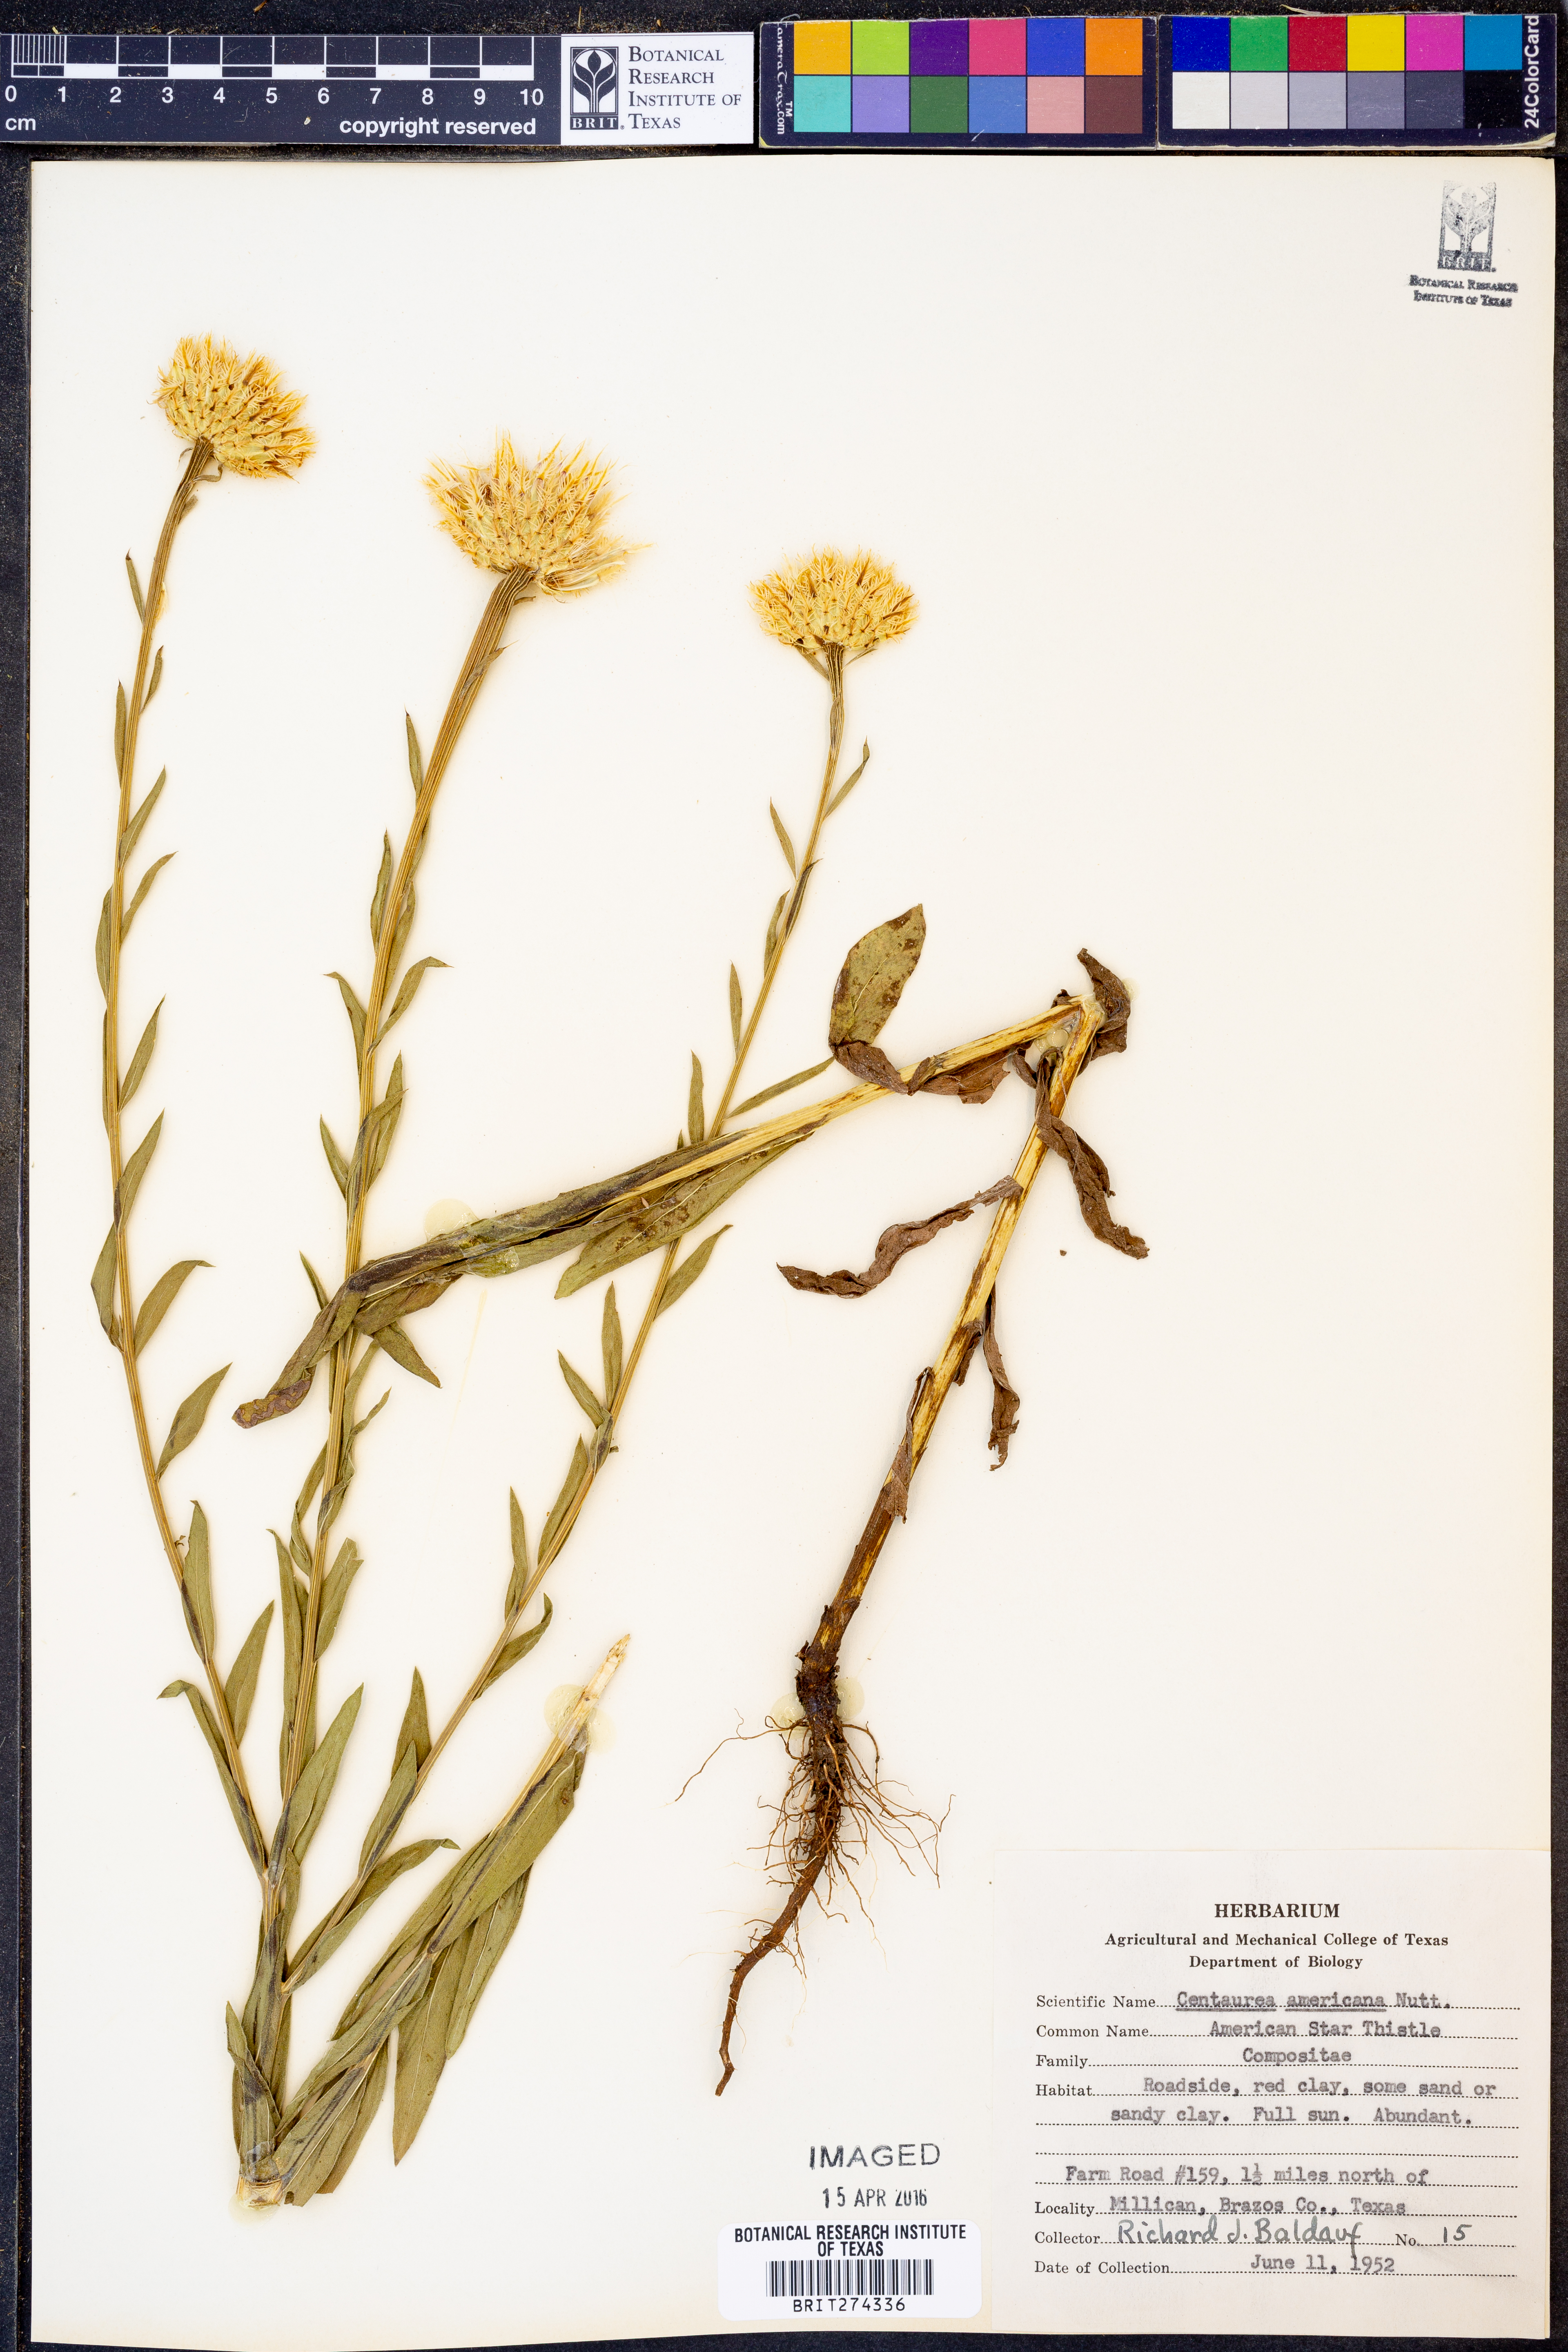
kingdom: Plantae
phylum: Tracheophyta
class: Magnoliopsida
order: Asterales
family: Asteraceae
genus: Plectocephalus
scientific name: Plectocephalus americanus
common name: American basket-flower
